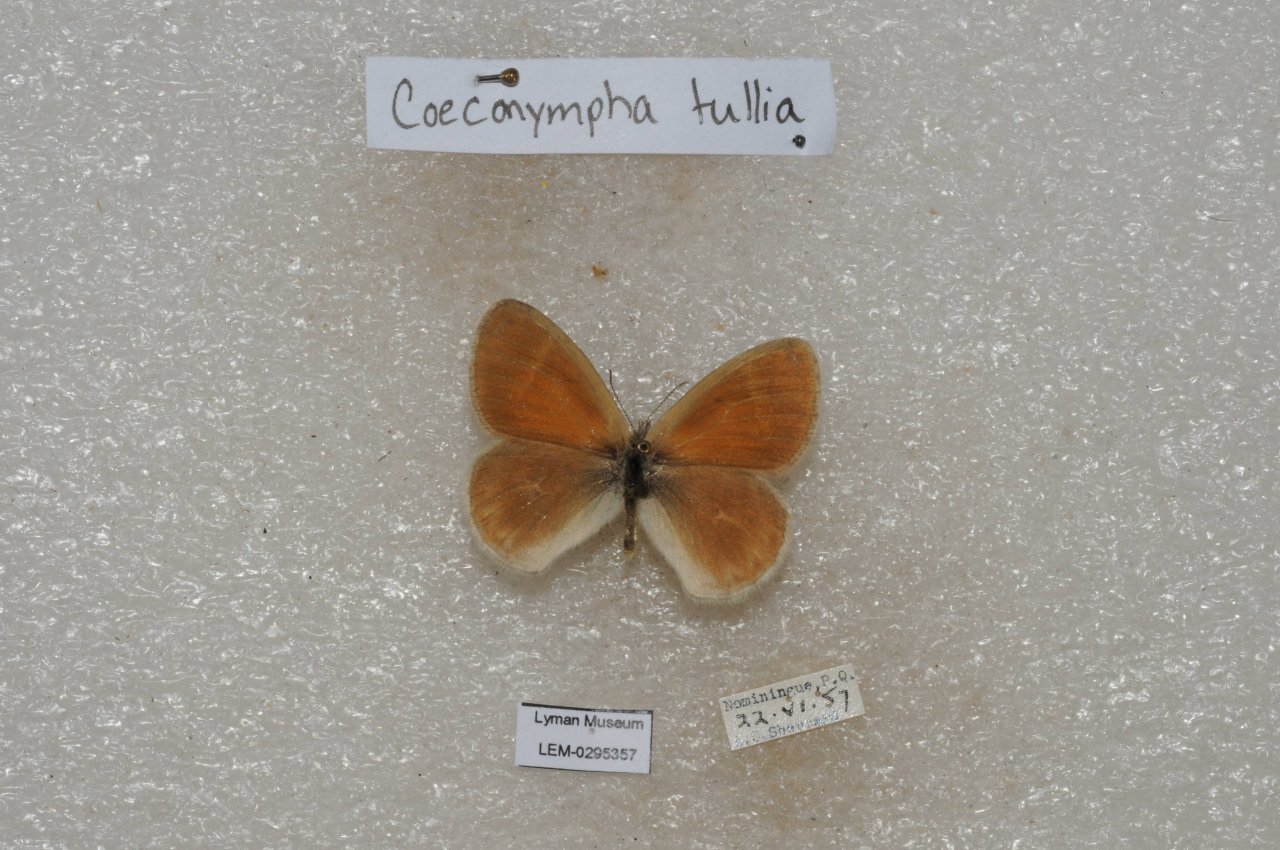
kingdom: Animalia
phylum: Arthropoda
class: Insecta
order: Lepidoptera
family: Nymphalidae
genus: Coenonympha
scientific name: Coenonympha tullia
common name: Large Heath
